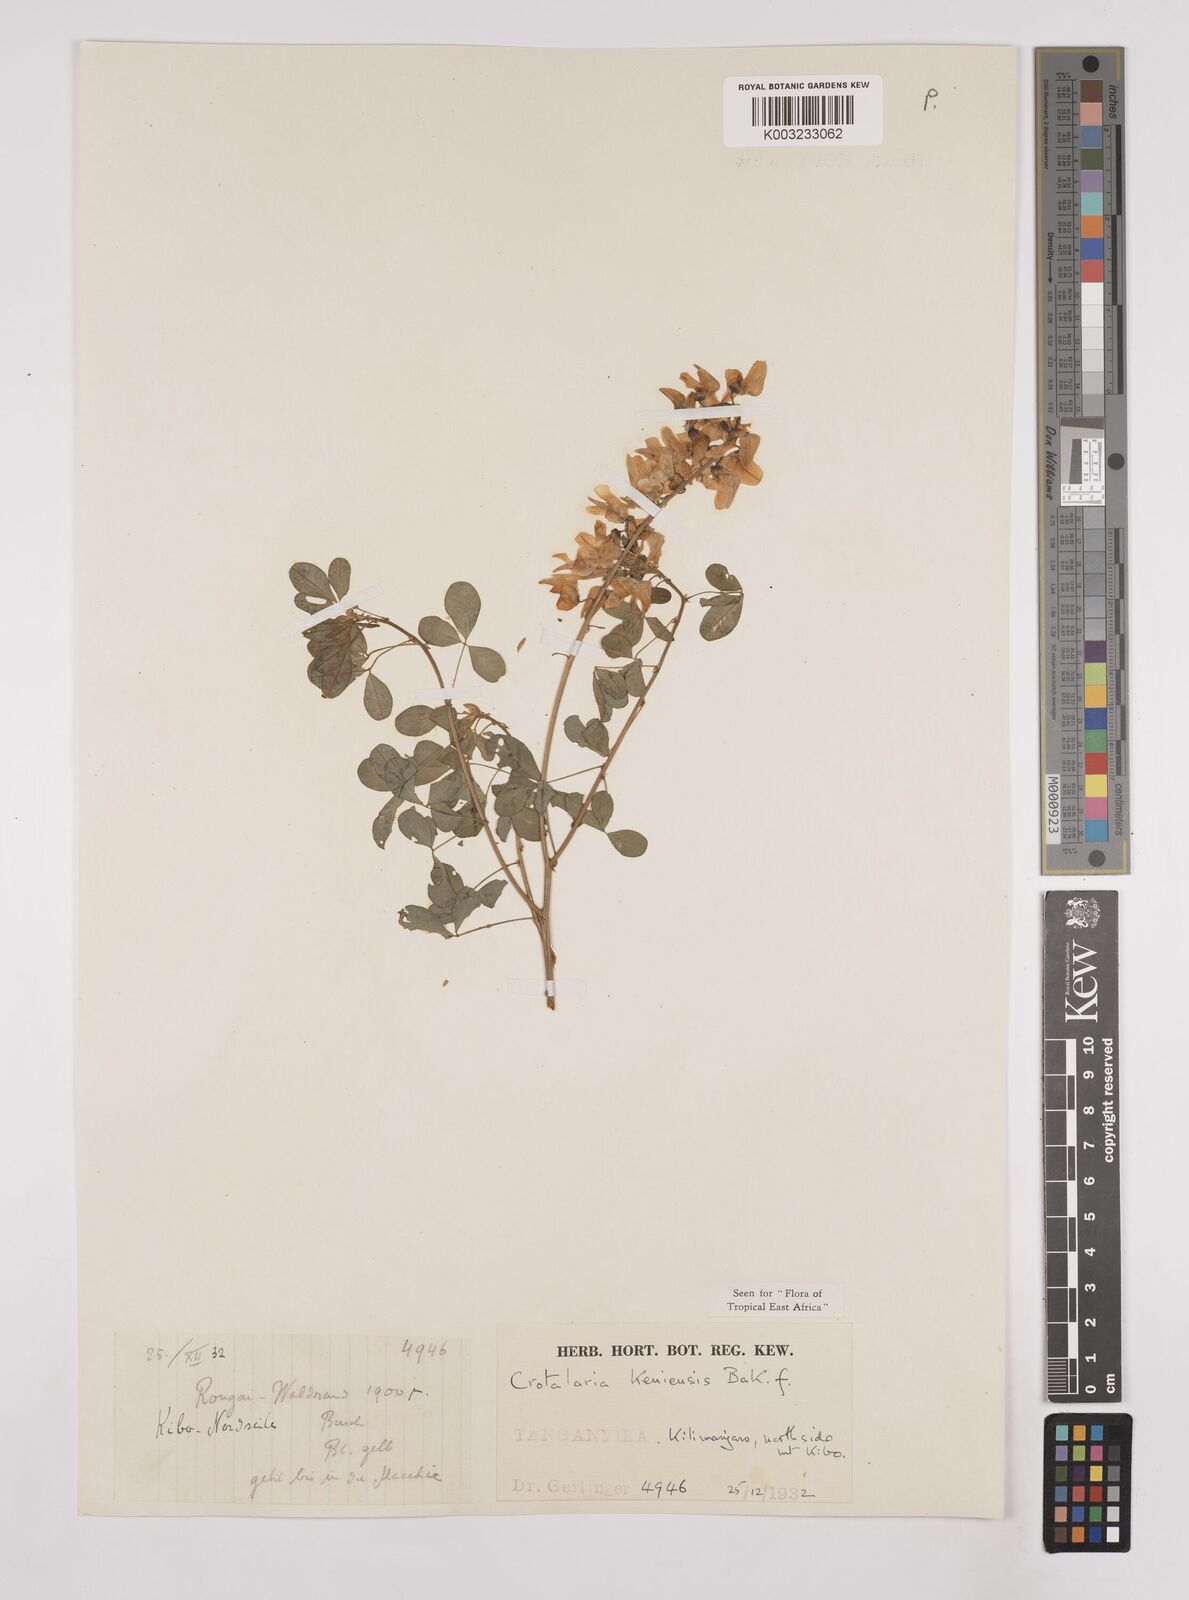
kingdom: Plantae
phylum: Tracheophyta
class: Magnoliopsida
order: Fabales
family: Fabaceae
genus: Crotalaria
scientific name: Crotalaria keniensis
